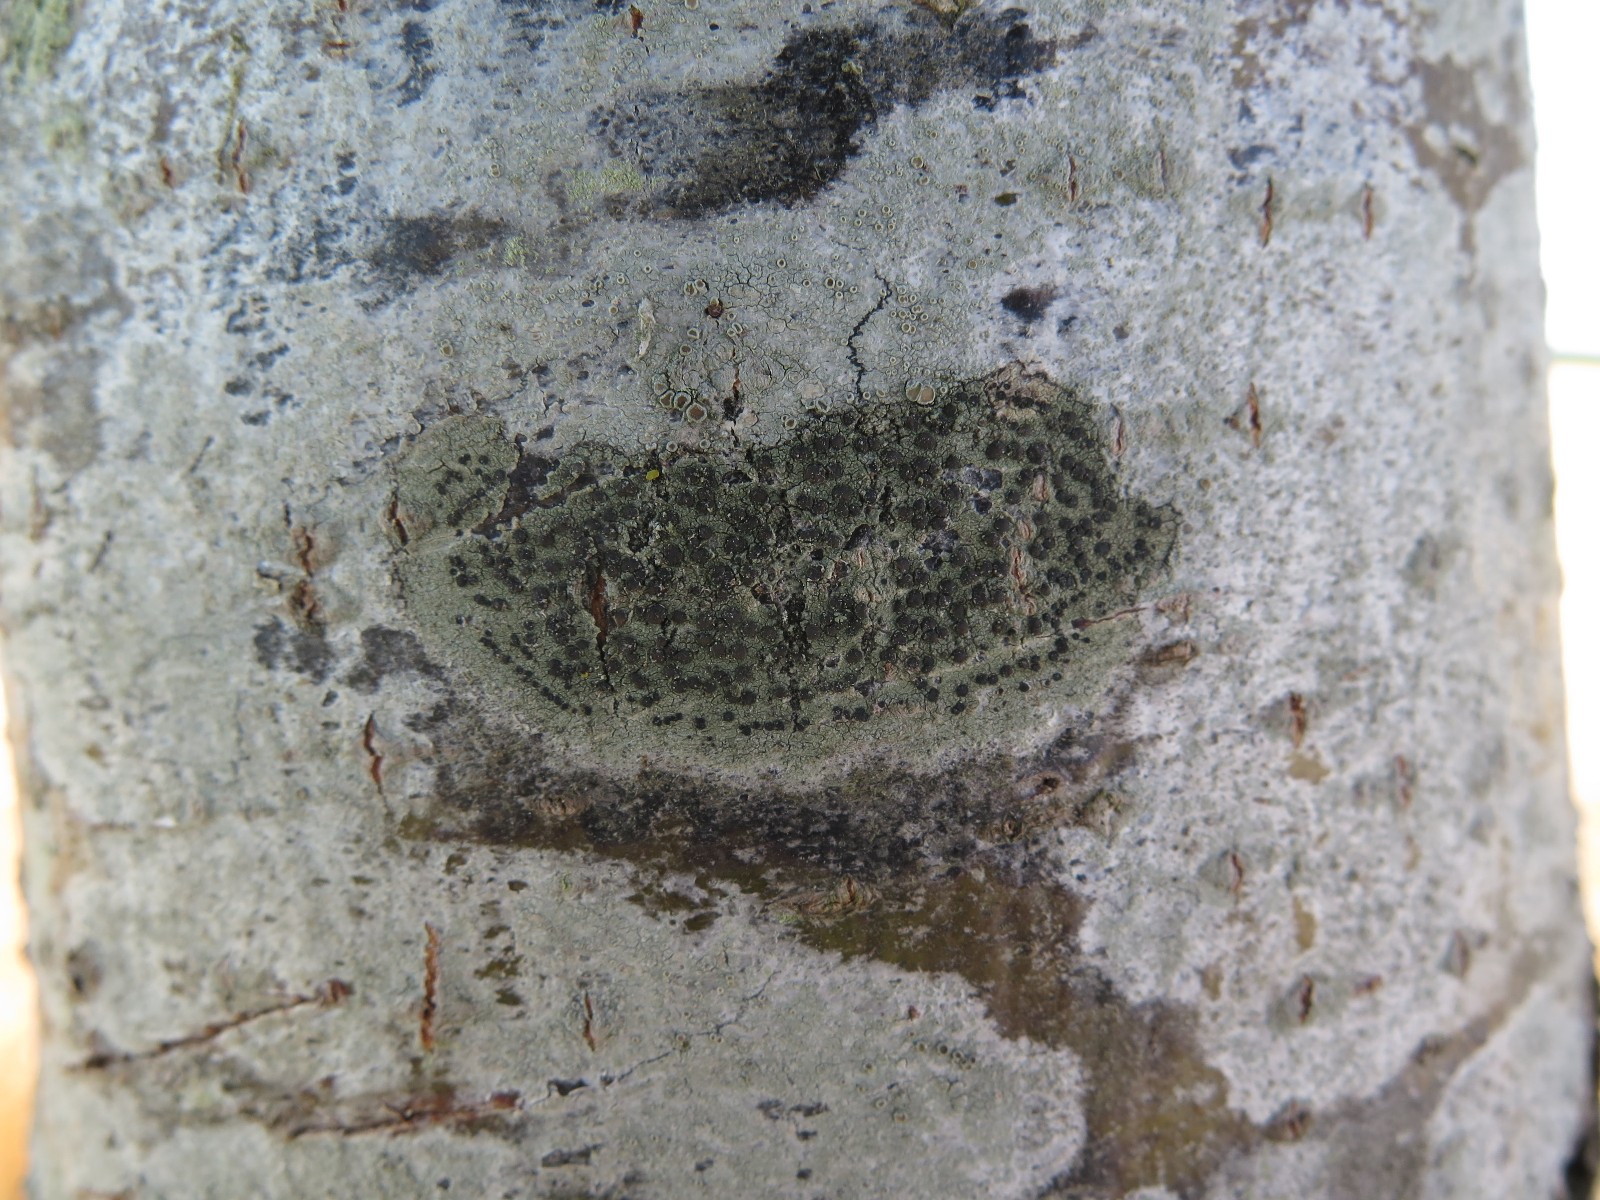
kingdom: Fungi
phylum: Ascomycota
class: Lecanoromycetes
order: Lecanorales
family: Lecanoraceae
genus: Lecidella
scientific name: Lecidella elaeochroma
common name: grågrøn skivelav
